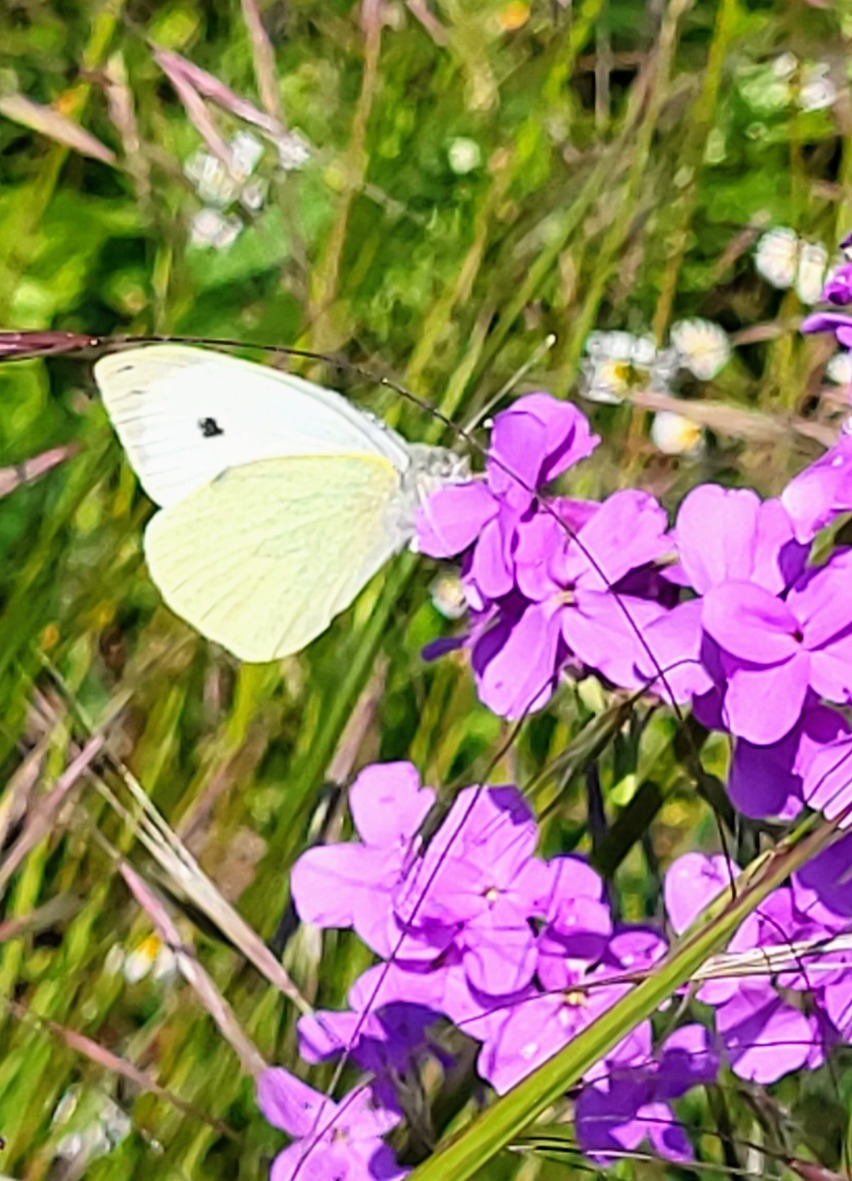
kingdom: Animalia
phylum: Arthropoda
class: Insecta
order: Lepidoptera
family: Pieridae
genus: Pieris
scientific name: Pieris brassicae
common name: Stor kålsommerfugl
